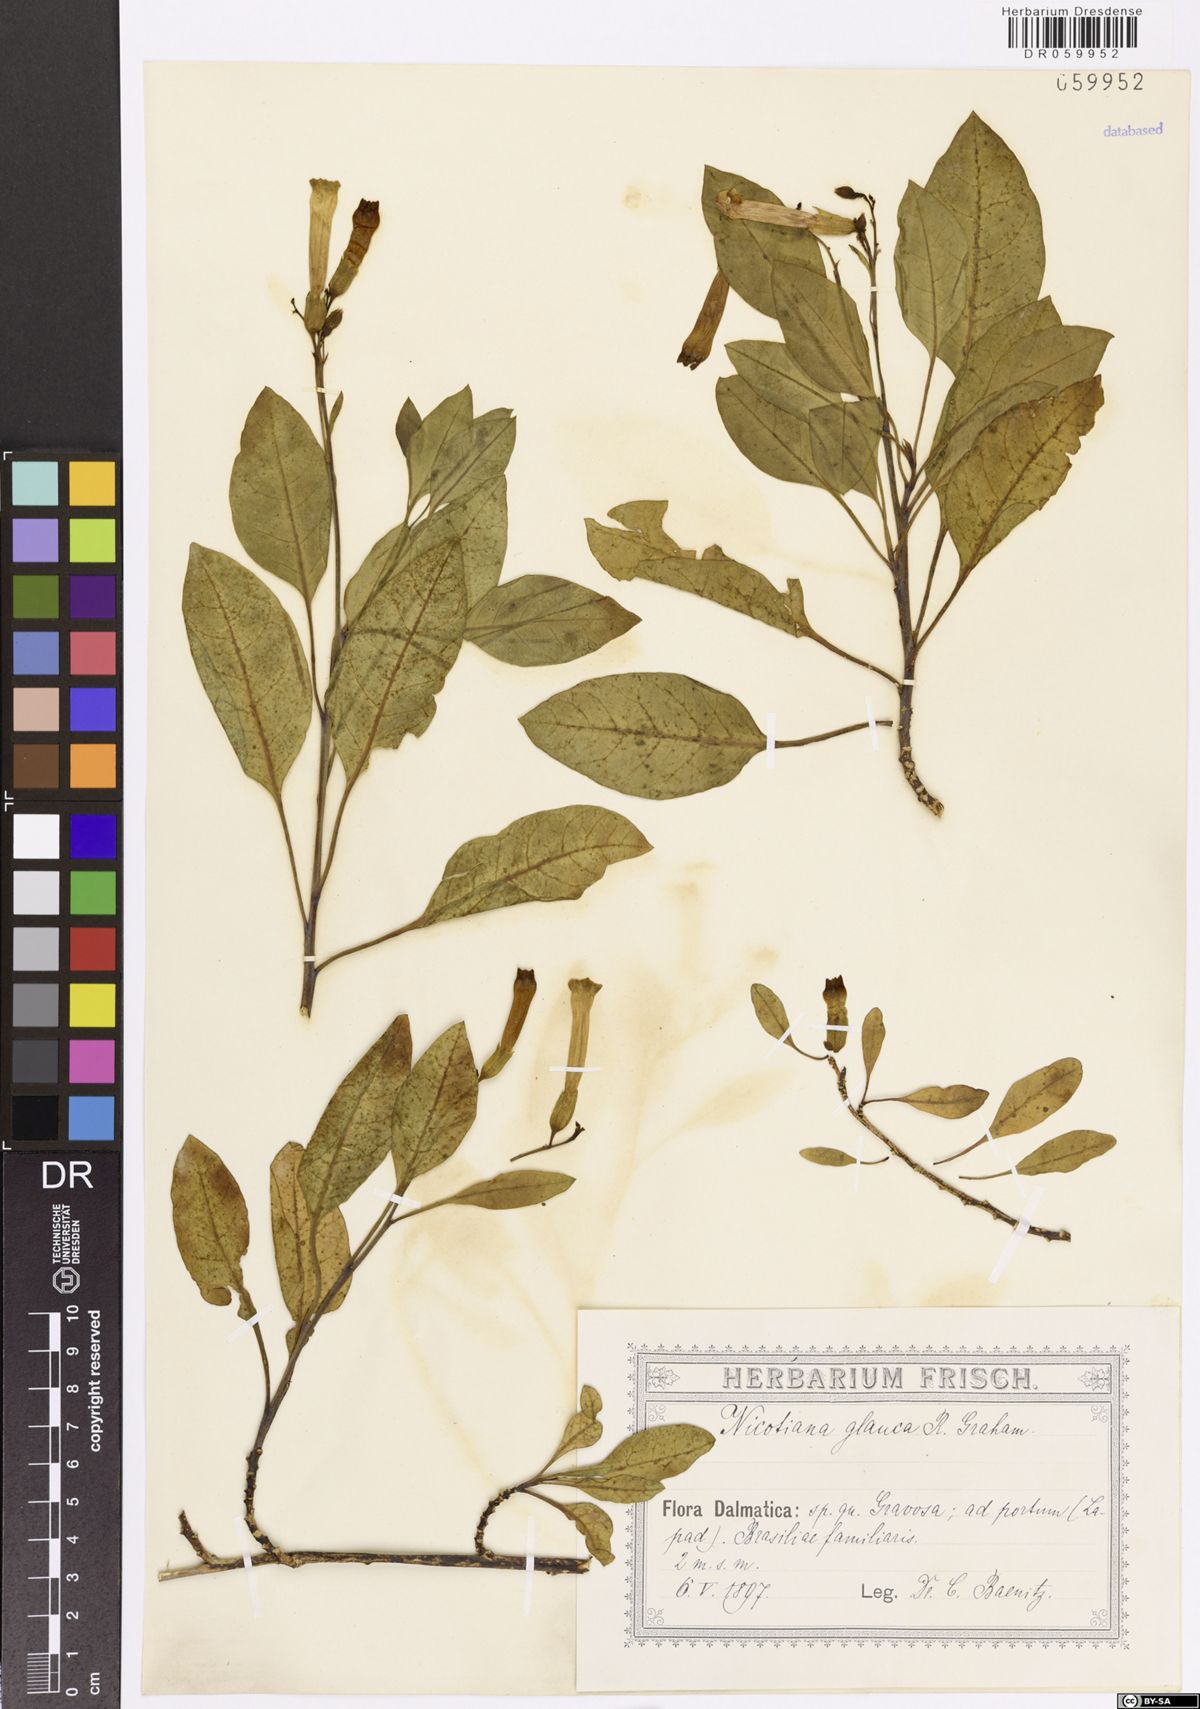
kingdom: Plantae
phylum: Tracheophyta
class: Magnoliopsida
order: Solanales
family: Solanaceae
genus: Nicotiana
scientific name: Nicotiana glauca
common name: Tree tobacco
